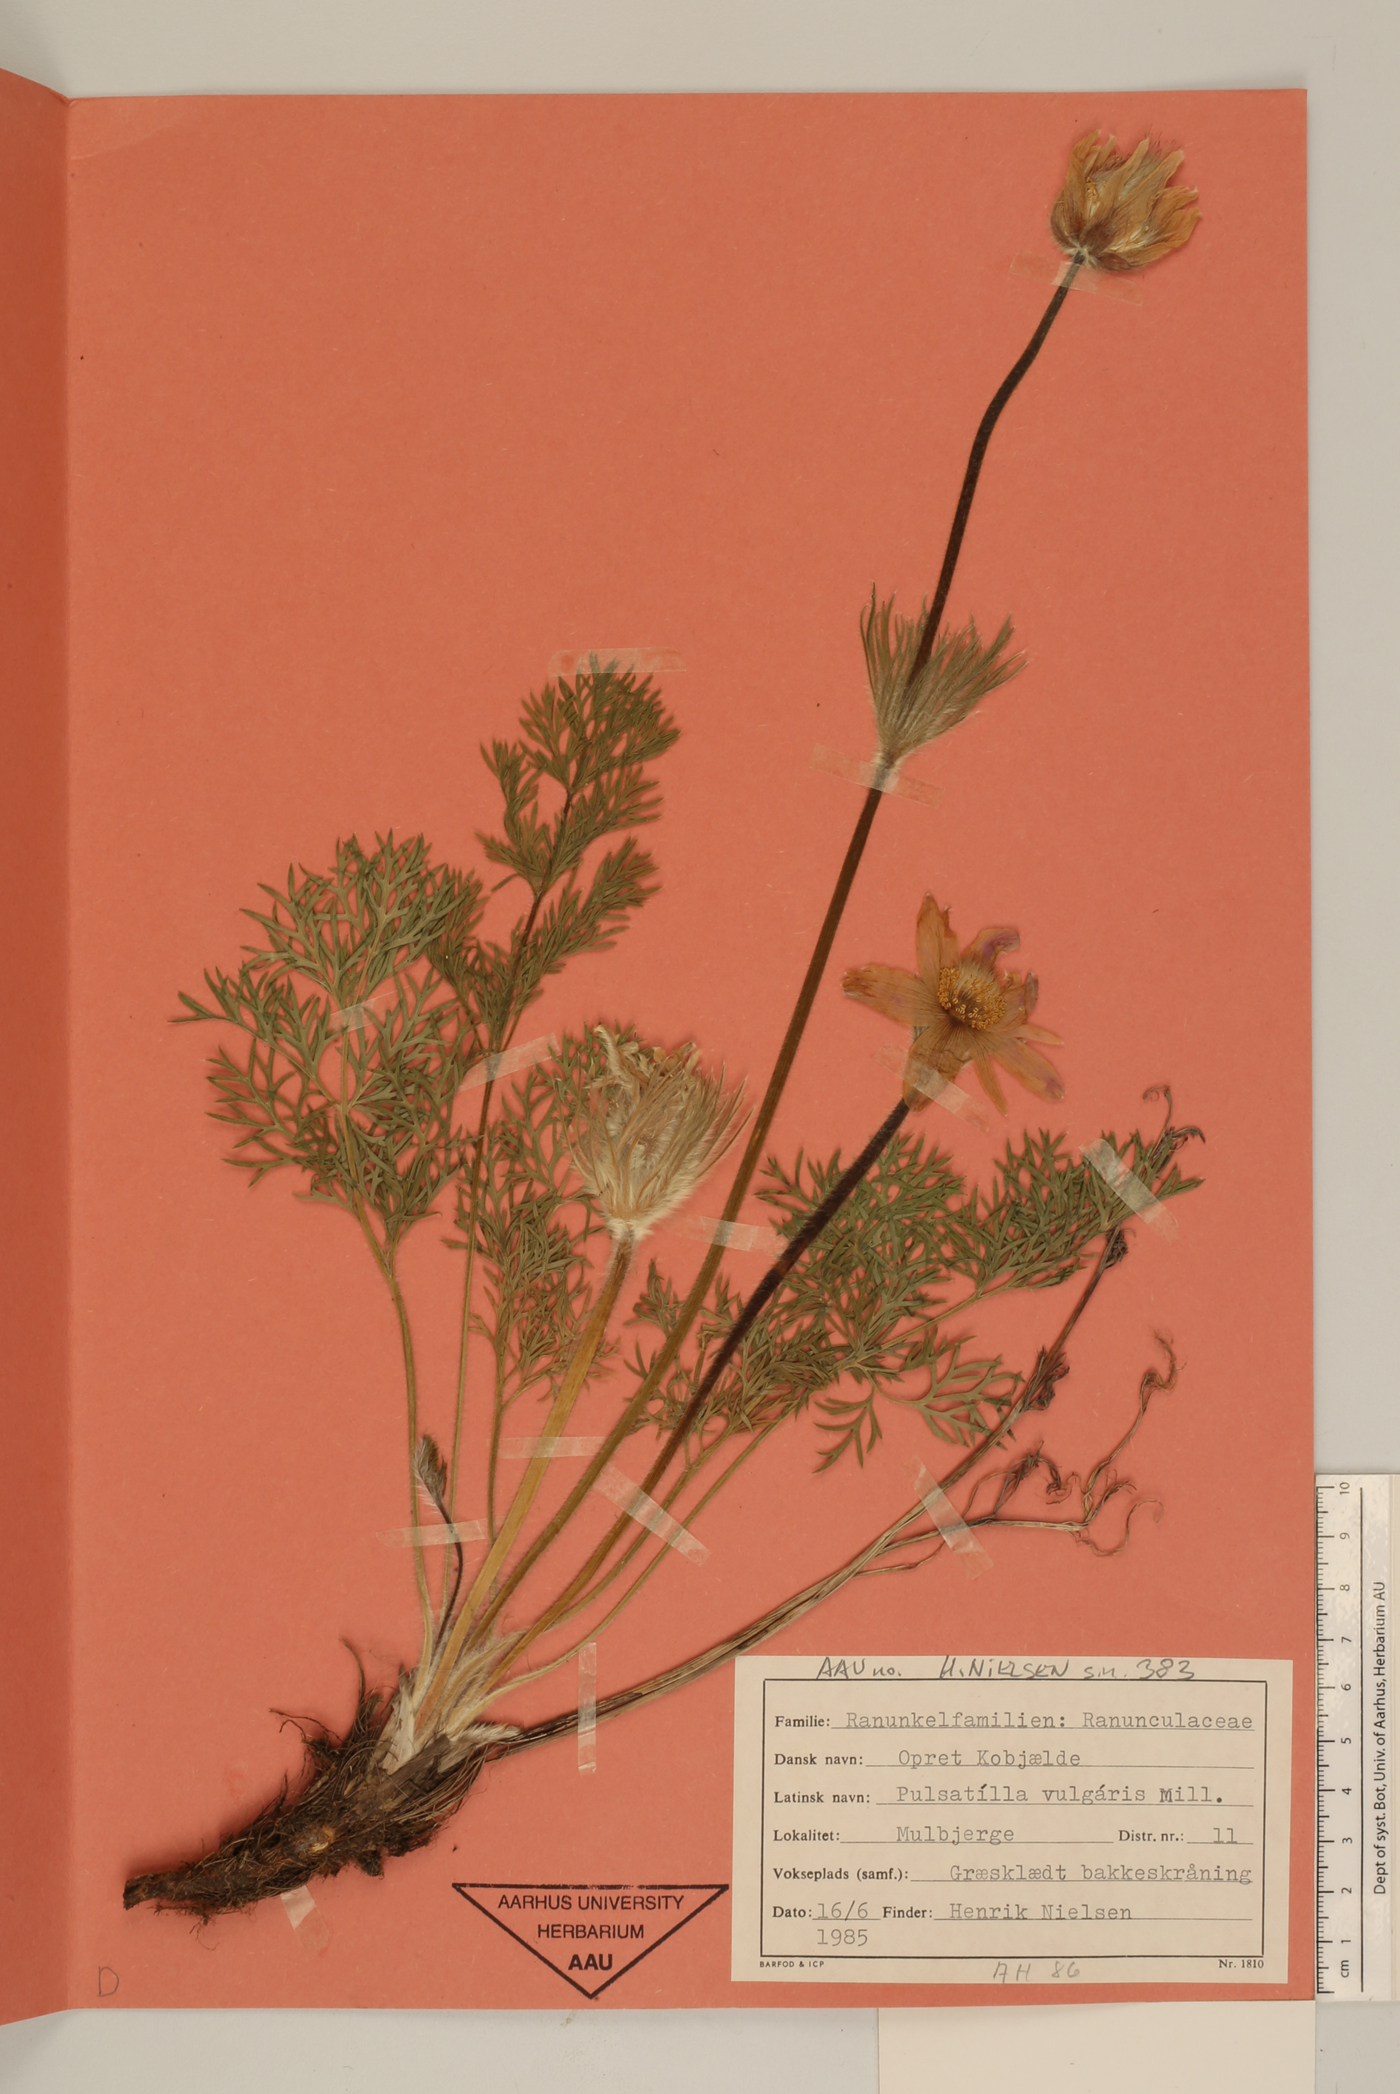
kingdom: Plantae
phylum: Tracheophyta
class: Magnoliopsida
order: Ranunculales
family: Ranunculaceae
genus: Pulsatilla
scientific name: Pulsatilla vulgaris
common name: Pasqueflower
